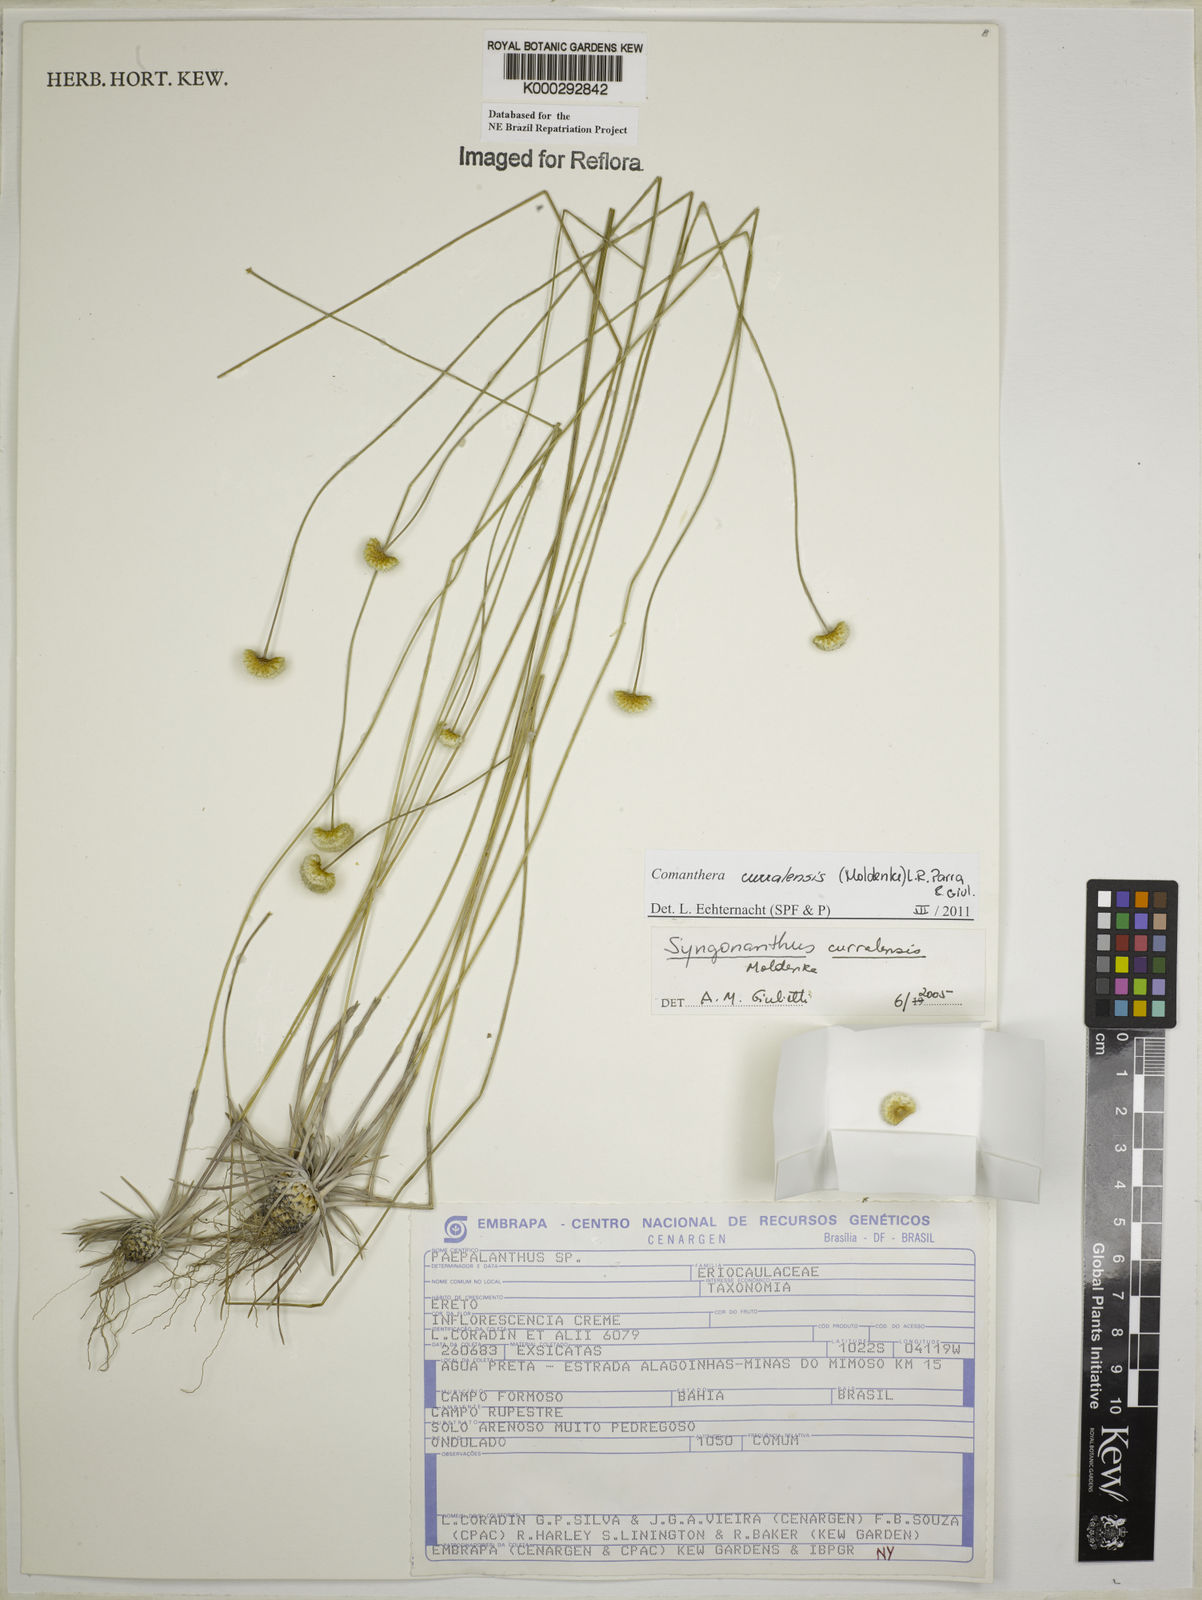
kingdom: Plantae
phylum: Tracheophyta
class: Liliopsida
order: Poales
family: Eriocaulaceae
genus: Syngonanthus
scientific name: Syngonanthus
